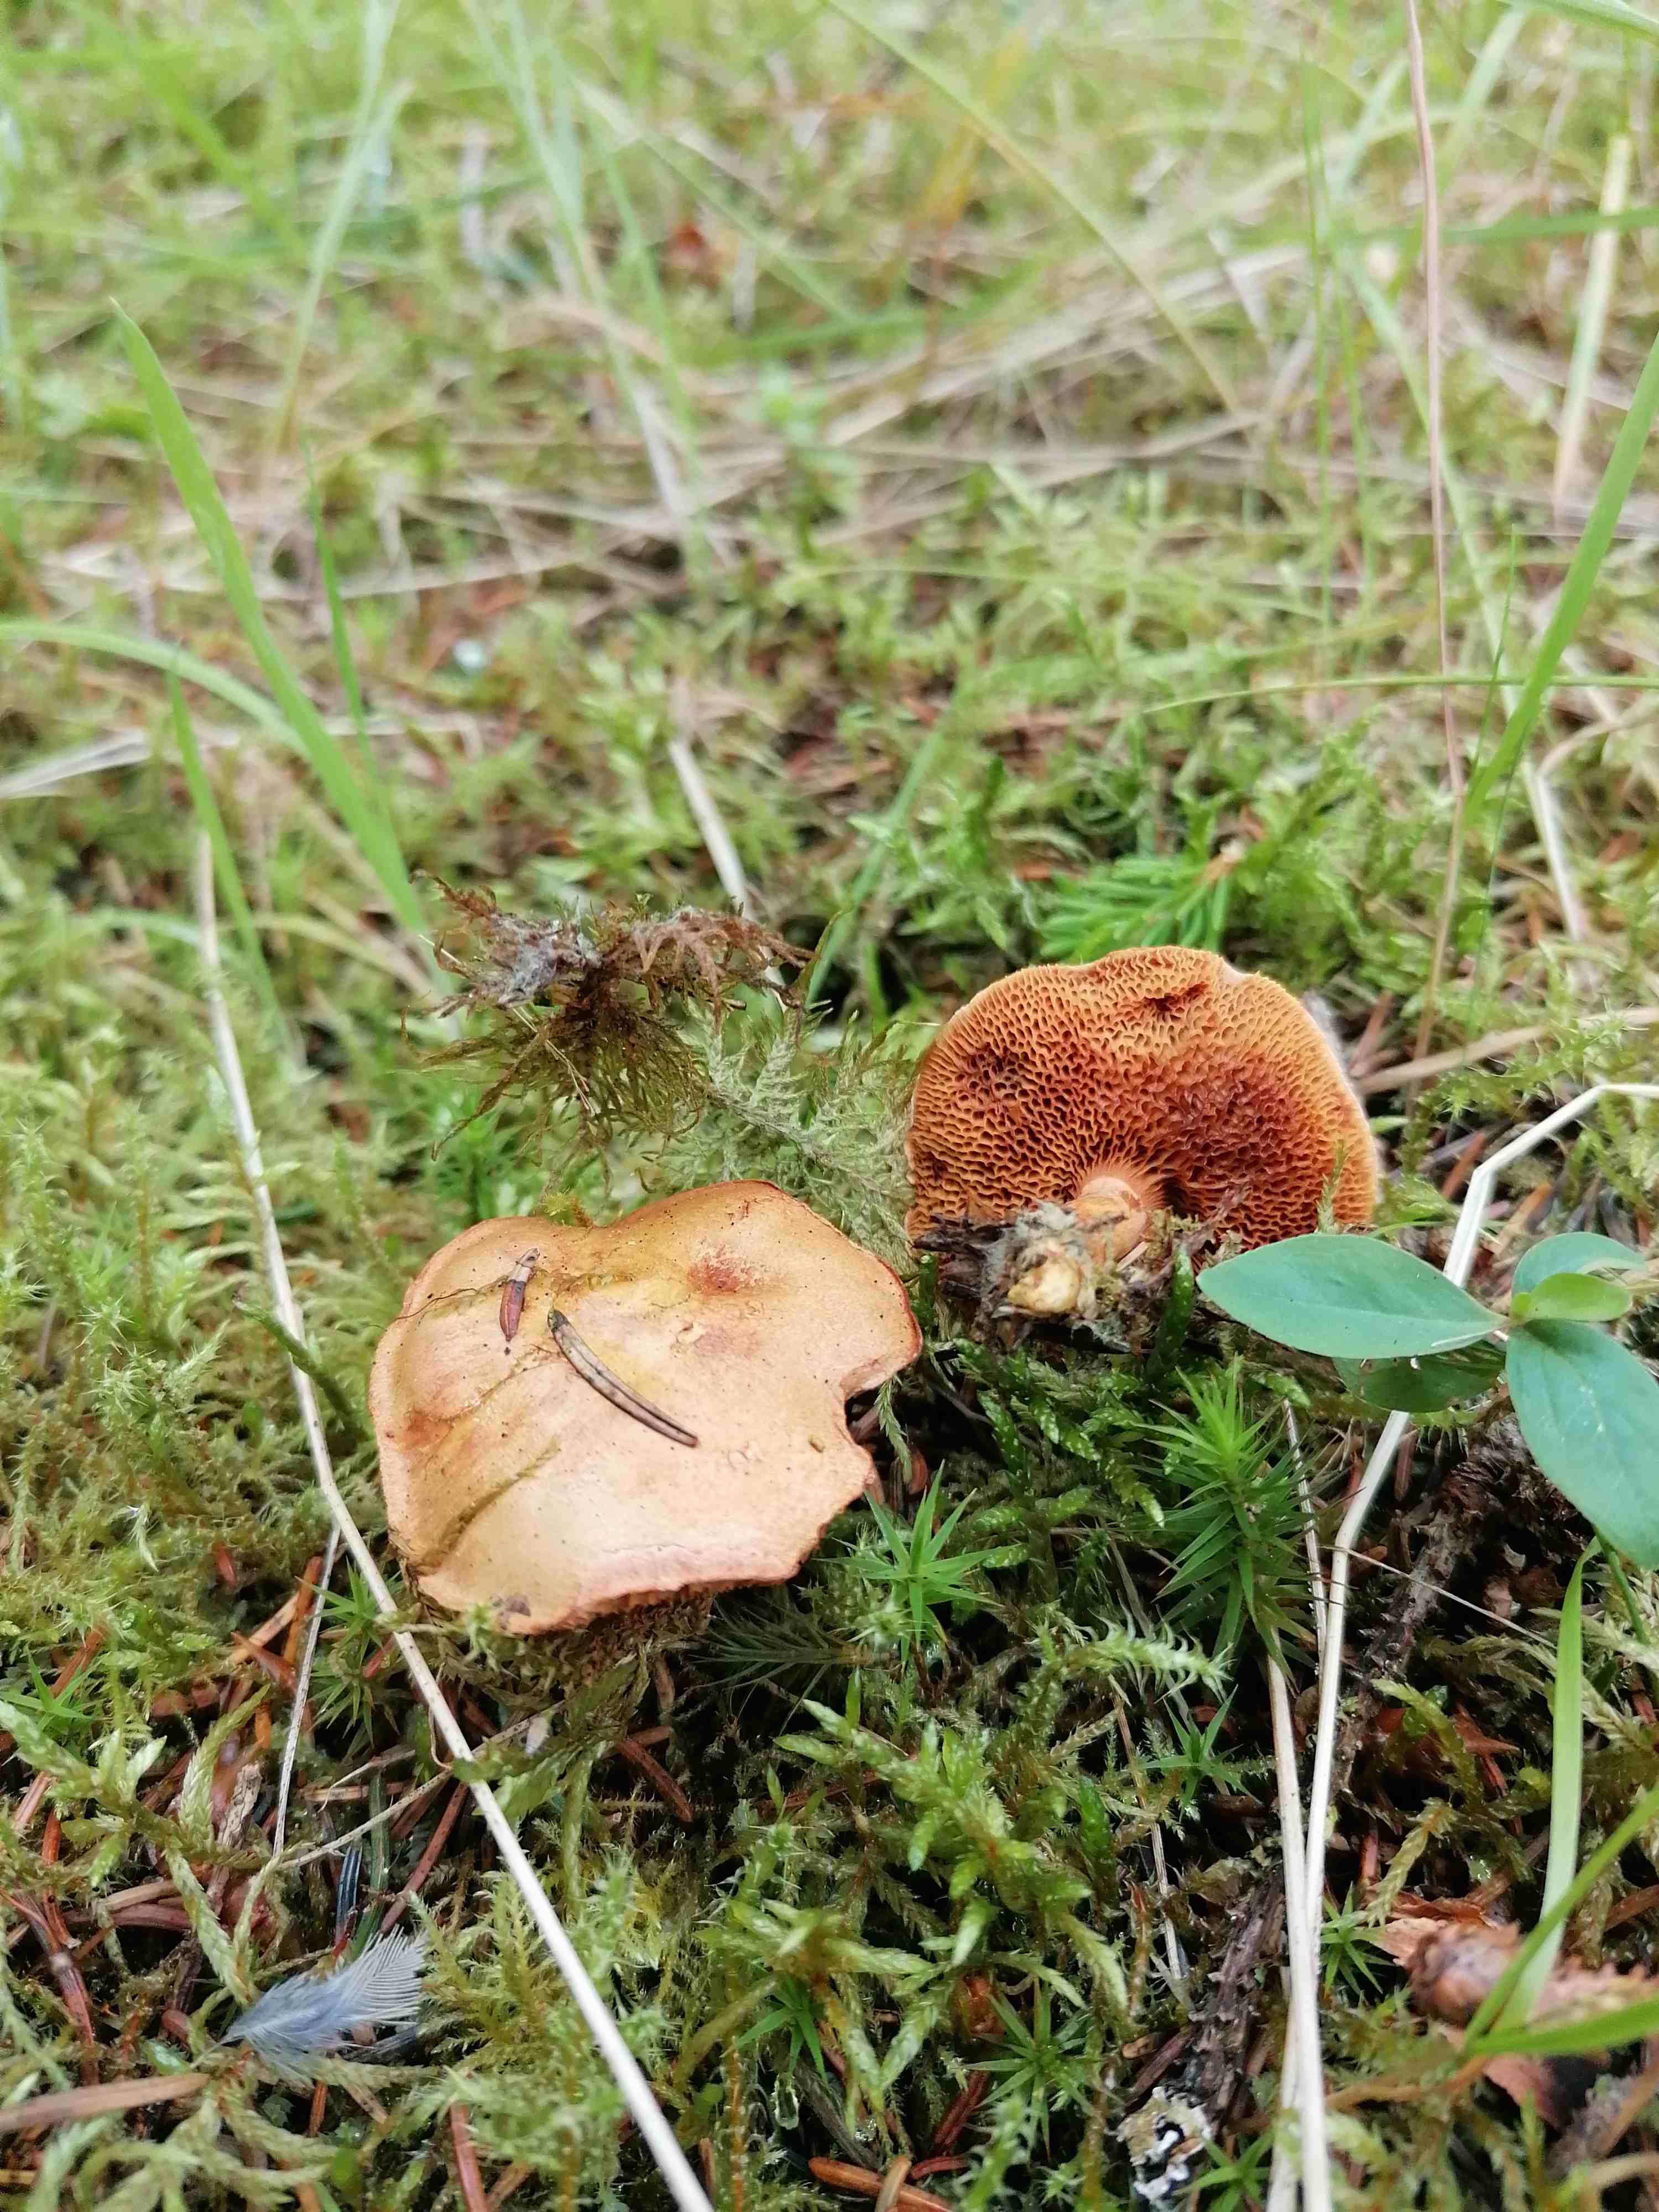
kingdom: Fungi
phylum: Basidiomycota
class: Agaricomycetes
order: Boletales
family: Boletaceae
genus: Chalciporus
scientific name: Chalciporus piperatus
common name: peberrørhat
